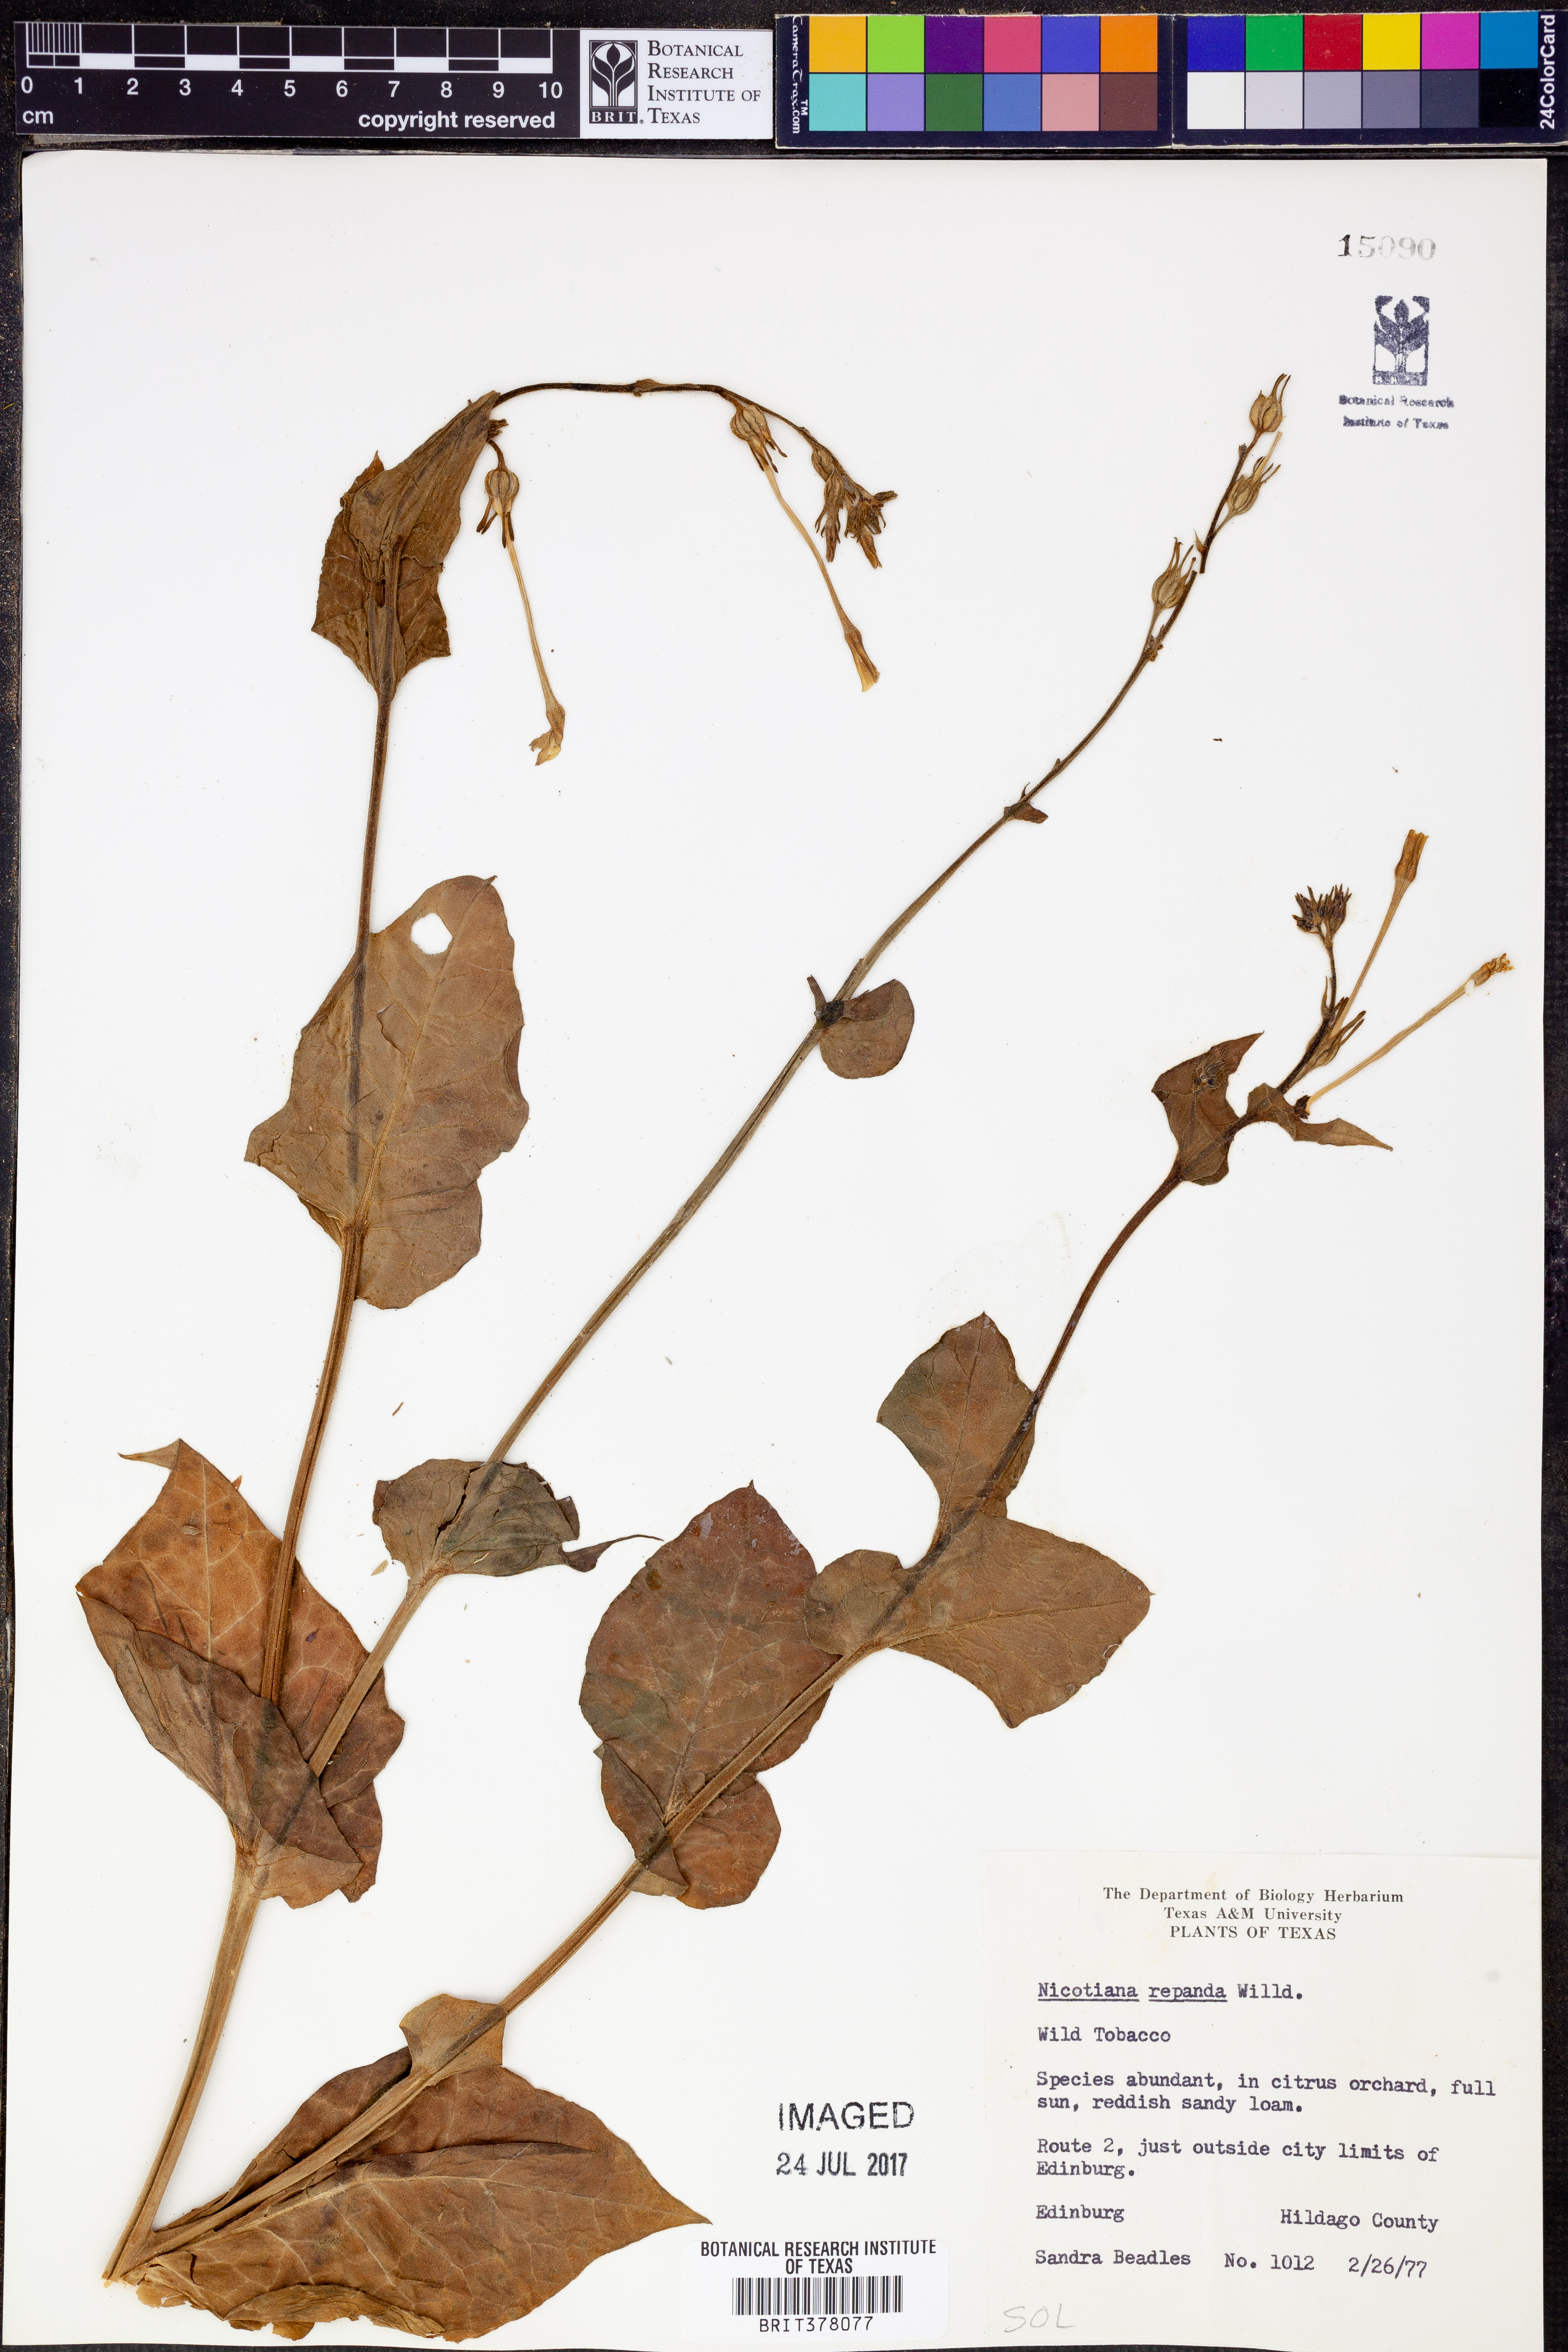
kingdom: Plantae
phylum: Tracheophyta
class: Magnoliopsida
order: Solanales
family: Solanaceae
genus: Nicotiana
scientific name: Nicotiana repanda
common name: Fiddle-leaf tobacco
